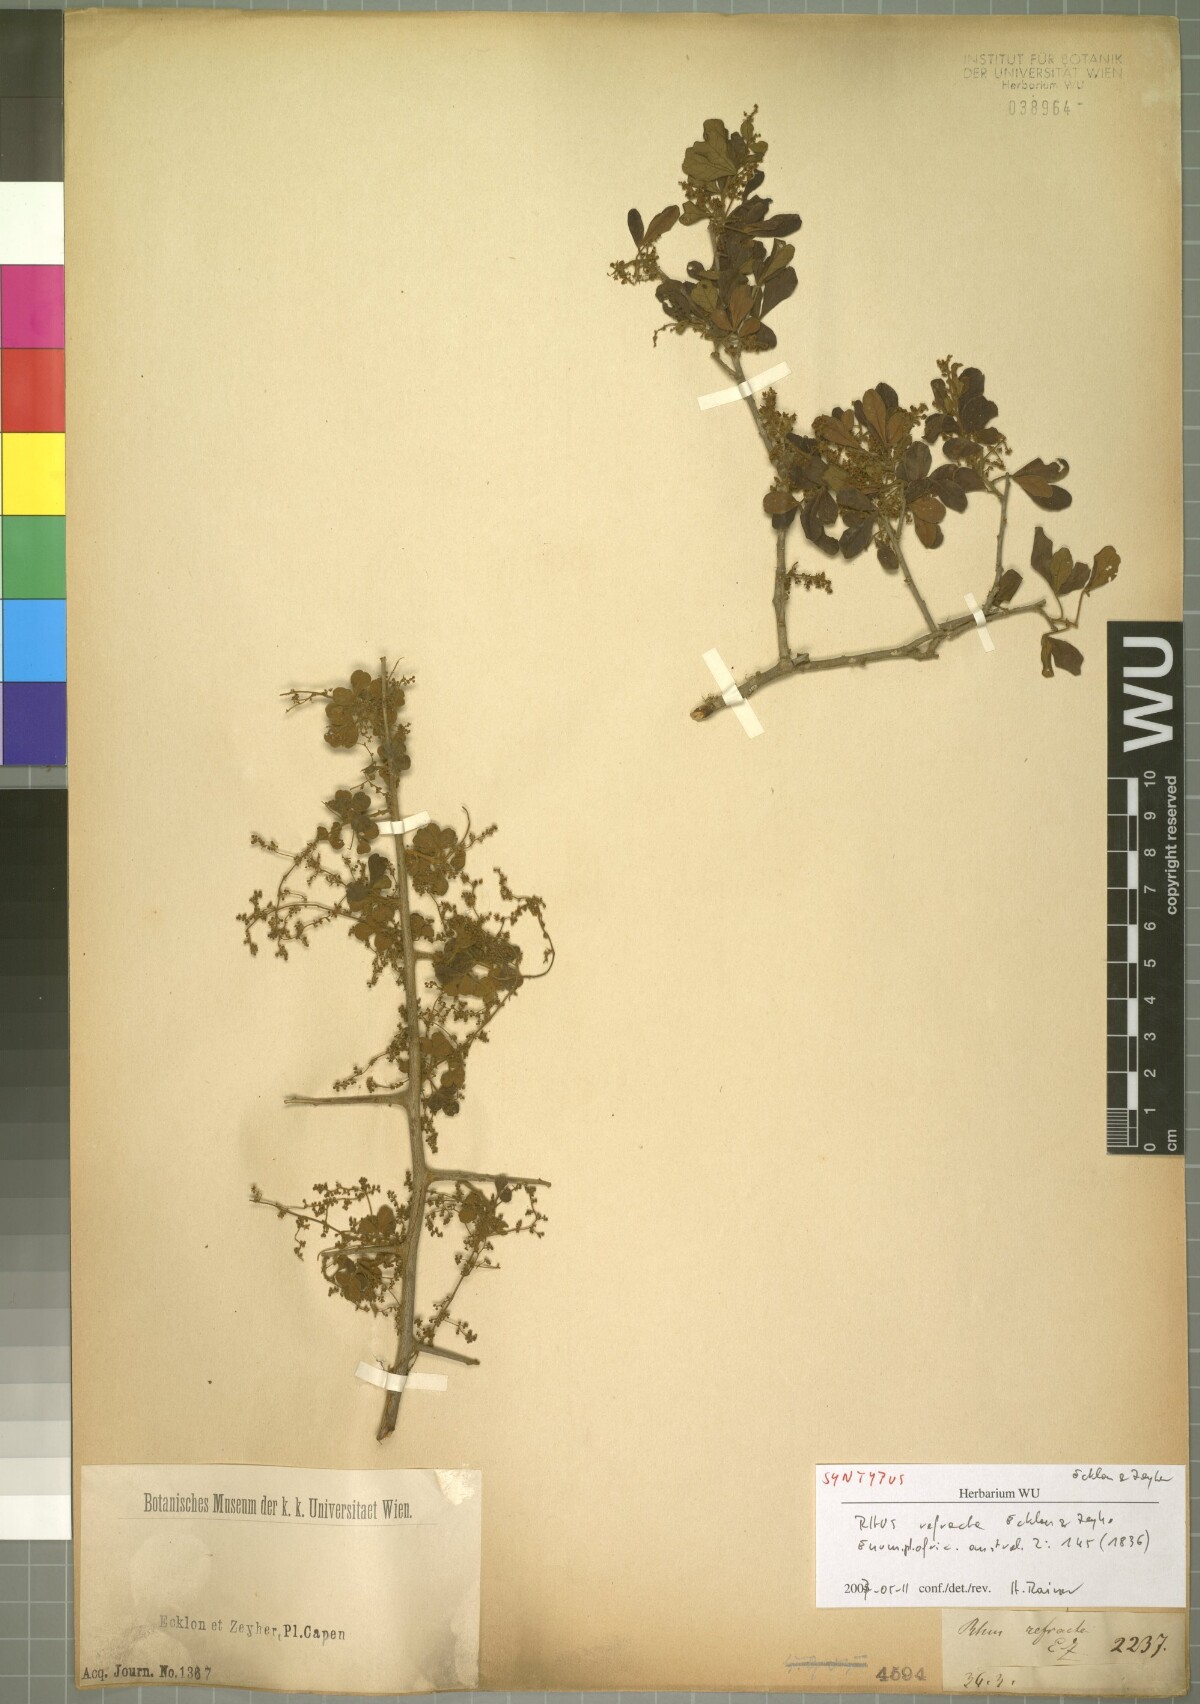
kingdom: Plantae
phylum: Tracheophyta
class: Magnoliopsida
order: Sapindales
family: Anacardiaceae
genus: Searsia
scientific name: Searsia refracta
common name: Thorny crow-berry
